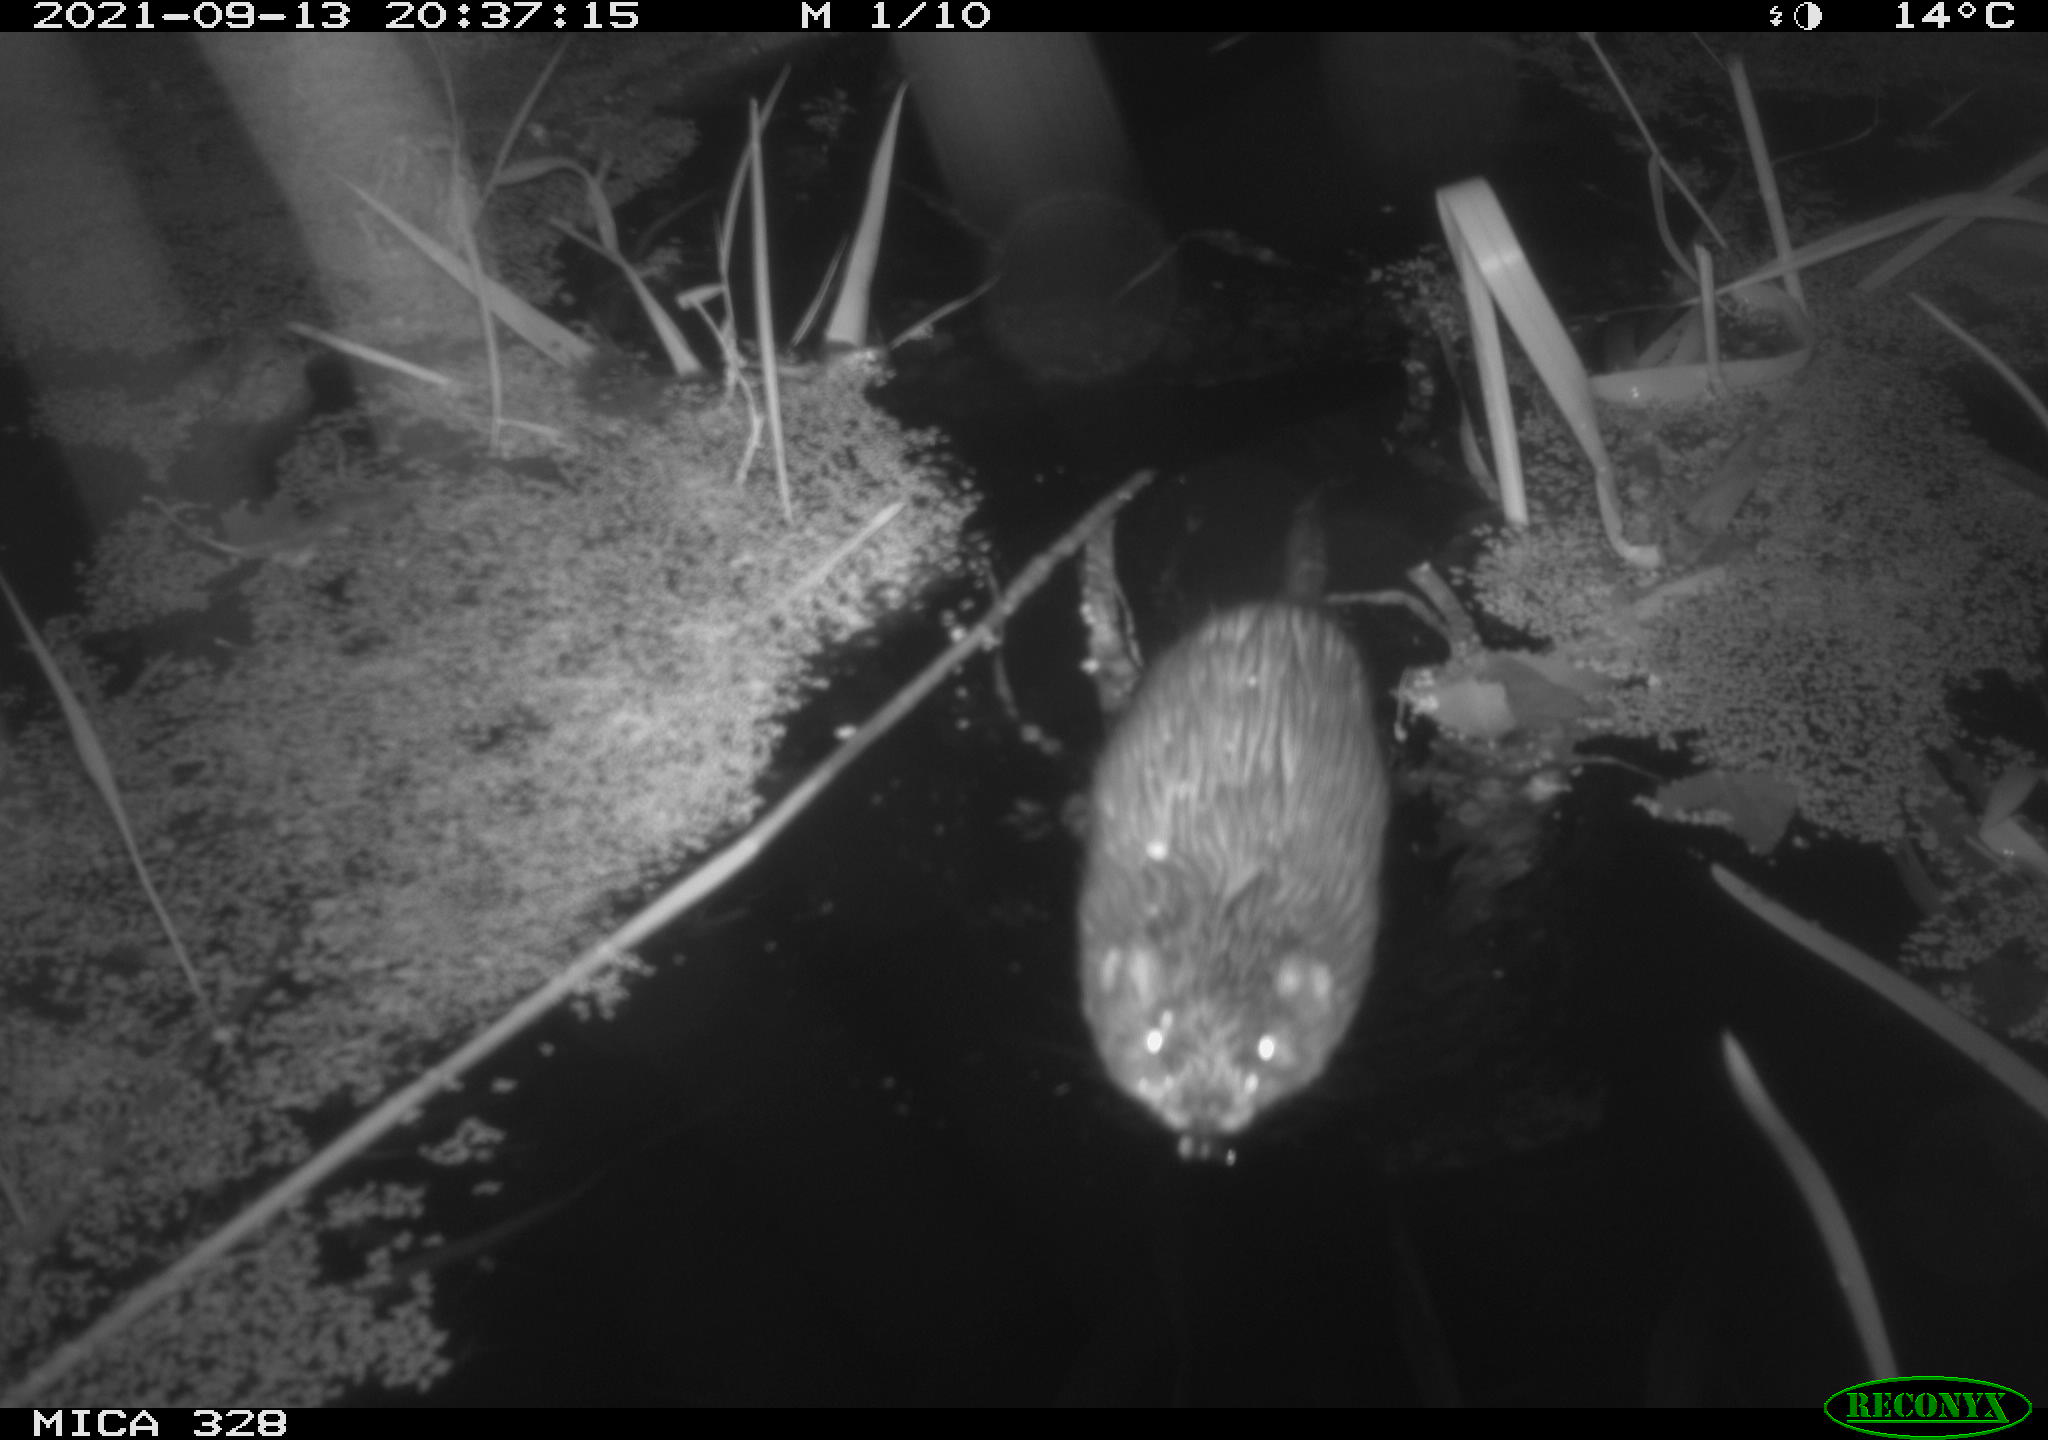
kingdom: Animalia
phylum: Chordata
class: Mammalia
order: Rodentia
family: Cricetidae
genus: Ondatra
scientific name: Ondatra zibethicus
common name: Muskrat
